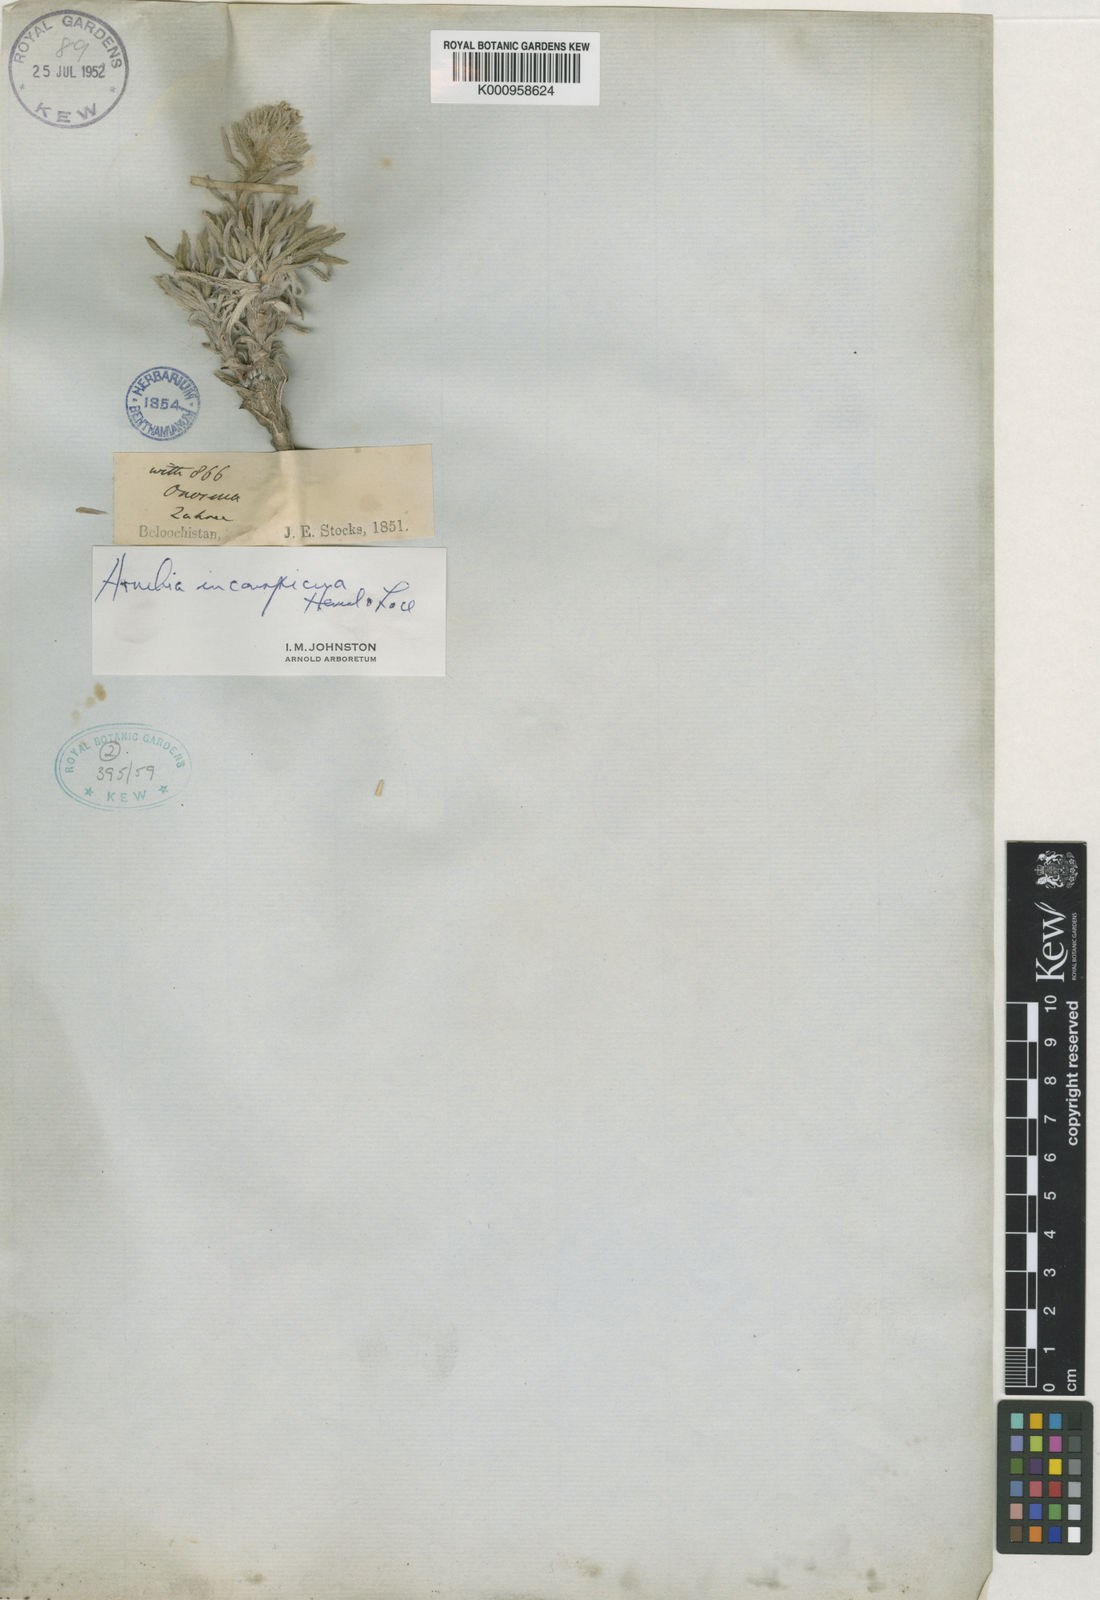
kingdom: Plantae
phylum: Tracheophyta
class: Magnoliopsida
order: Boraginales
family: Boraginaceae
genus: Arnebia
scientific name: Arnebia inconspicua
